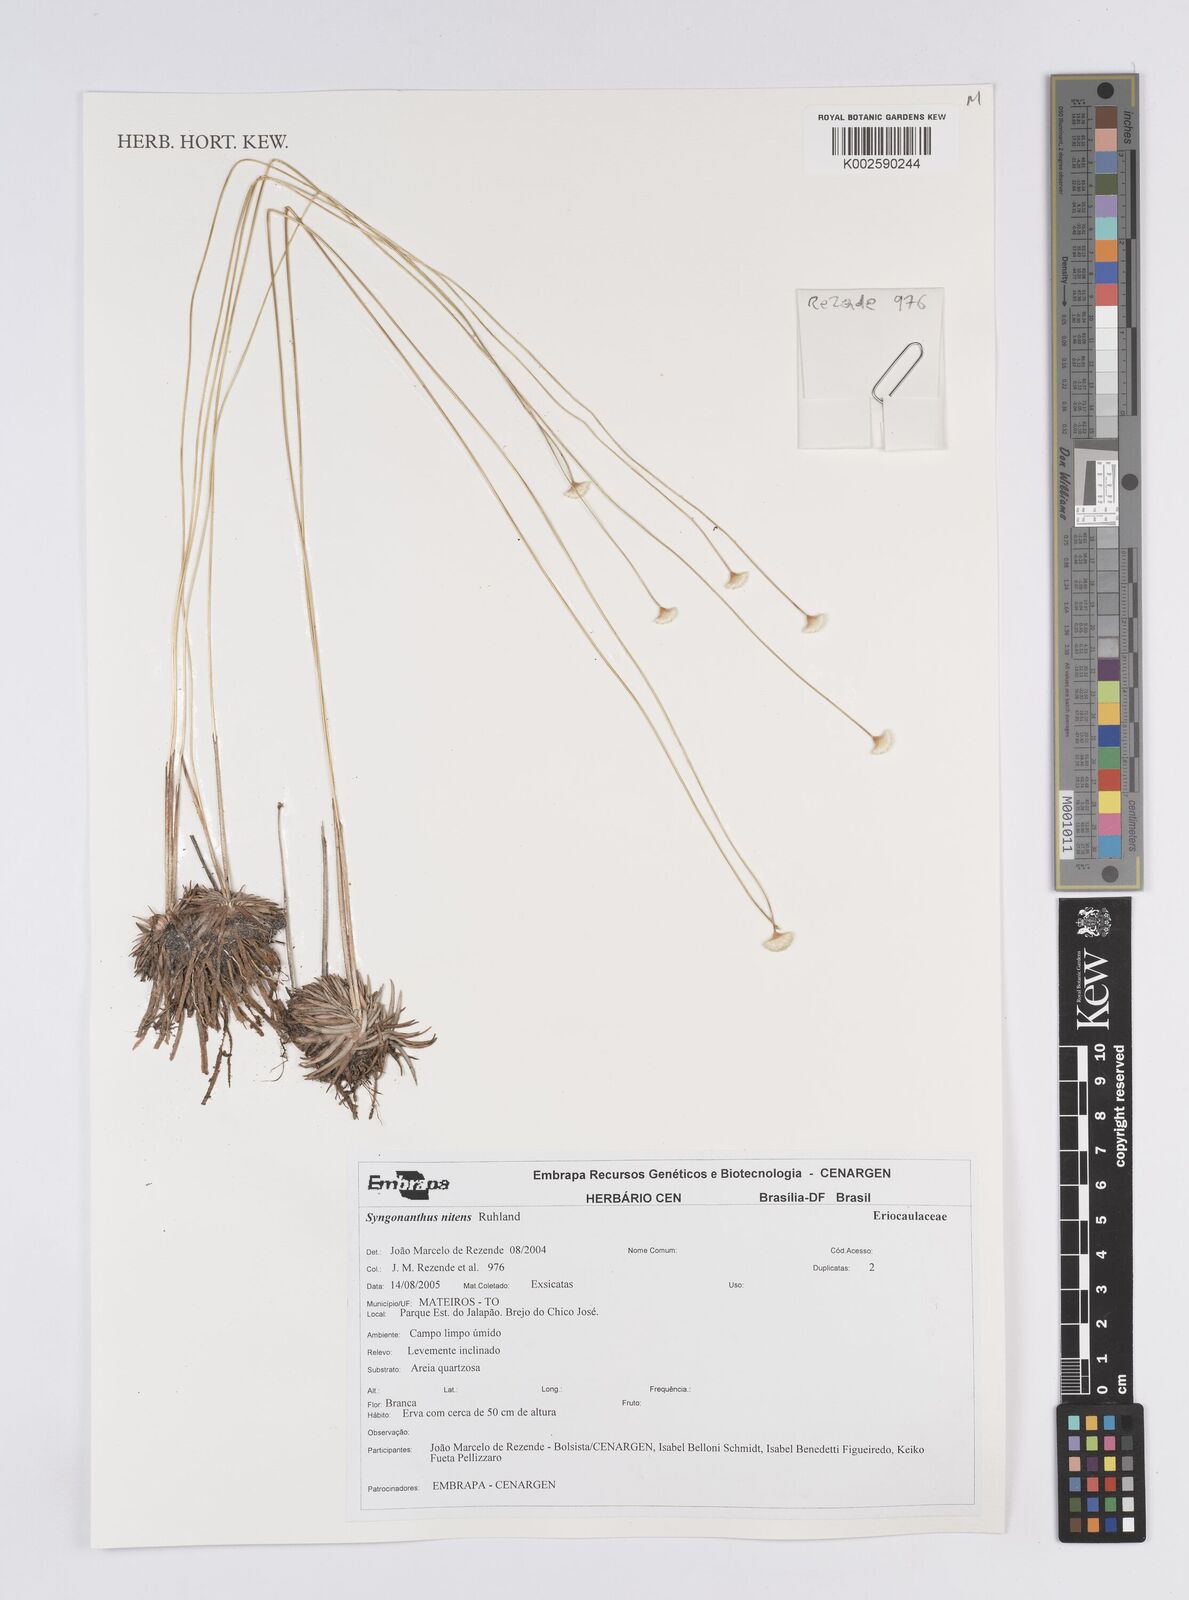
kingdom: Plantae
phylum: Tracheophyta
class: Liliopsida
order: Poales
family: Eriocaulaceae
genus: Syngonanthus
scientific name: Syngonanthus nitens
